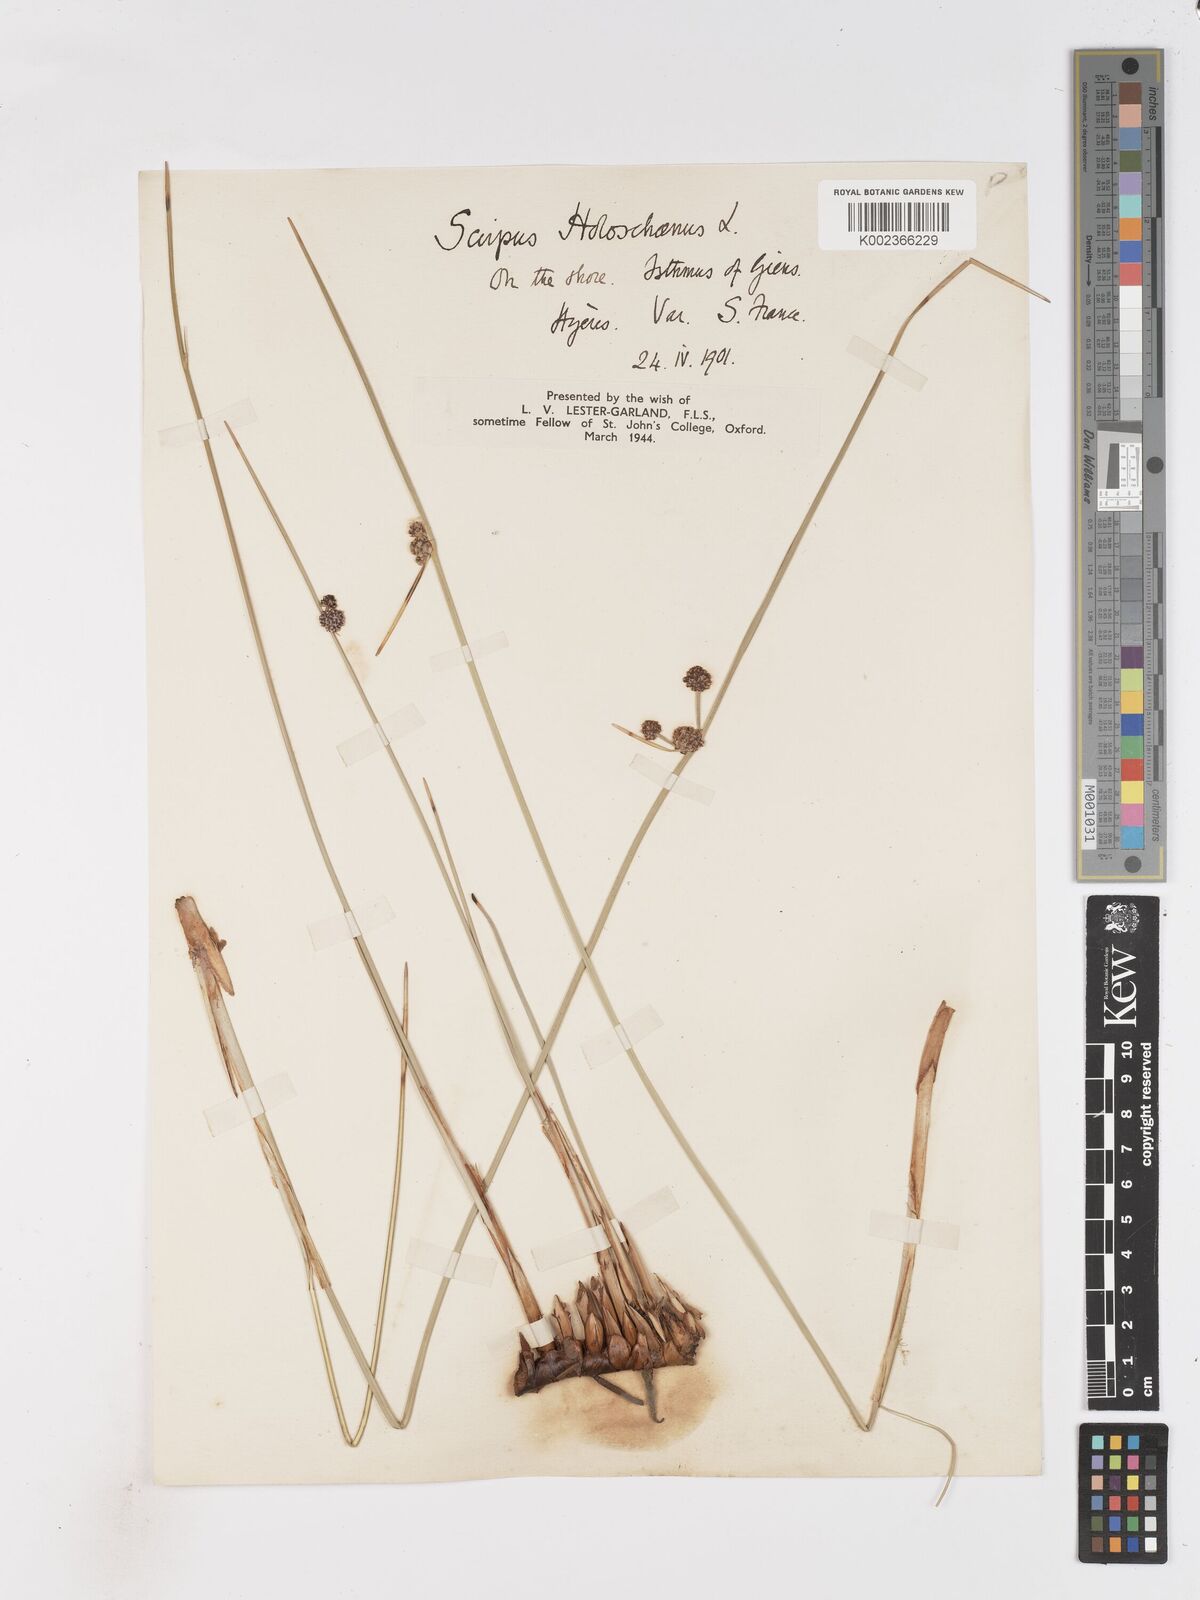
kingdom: Plantae
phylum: Tracheophyta
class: Liliopsida
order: Poales
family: Cyperaceae
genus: Scirpoides
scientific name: Scirpoides holoschoenus
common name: Round-headed club-rush
